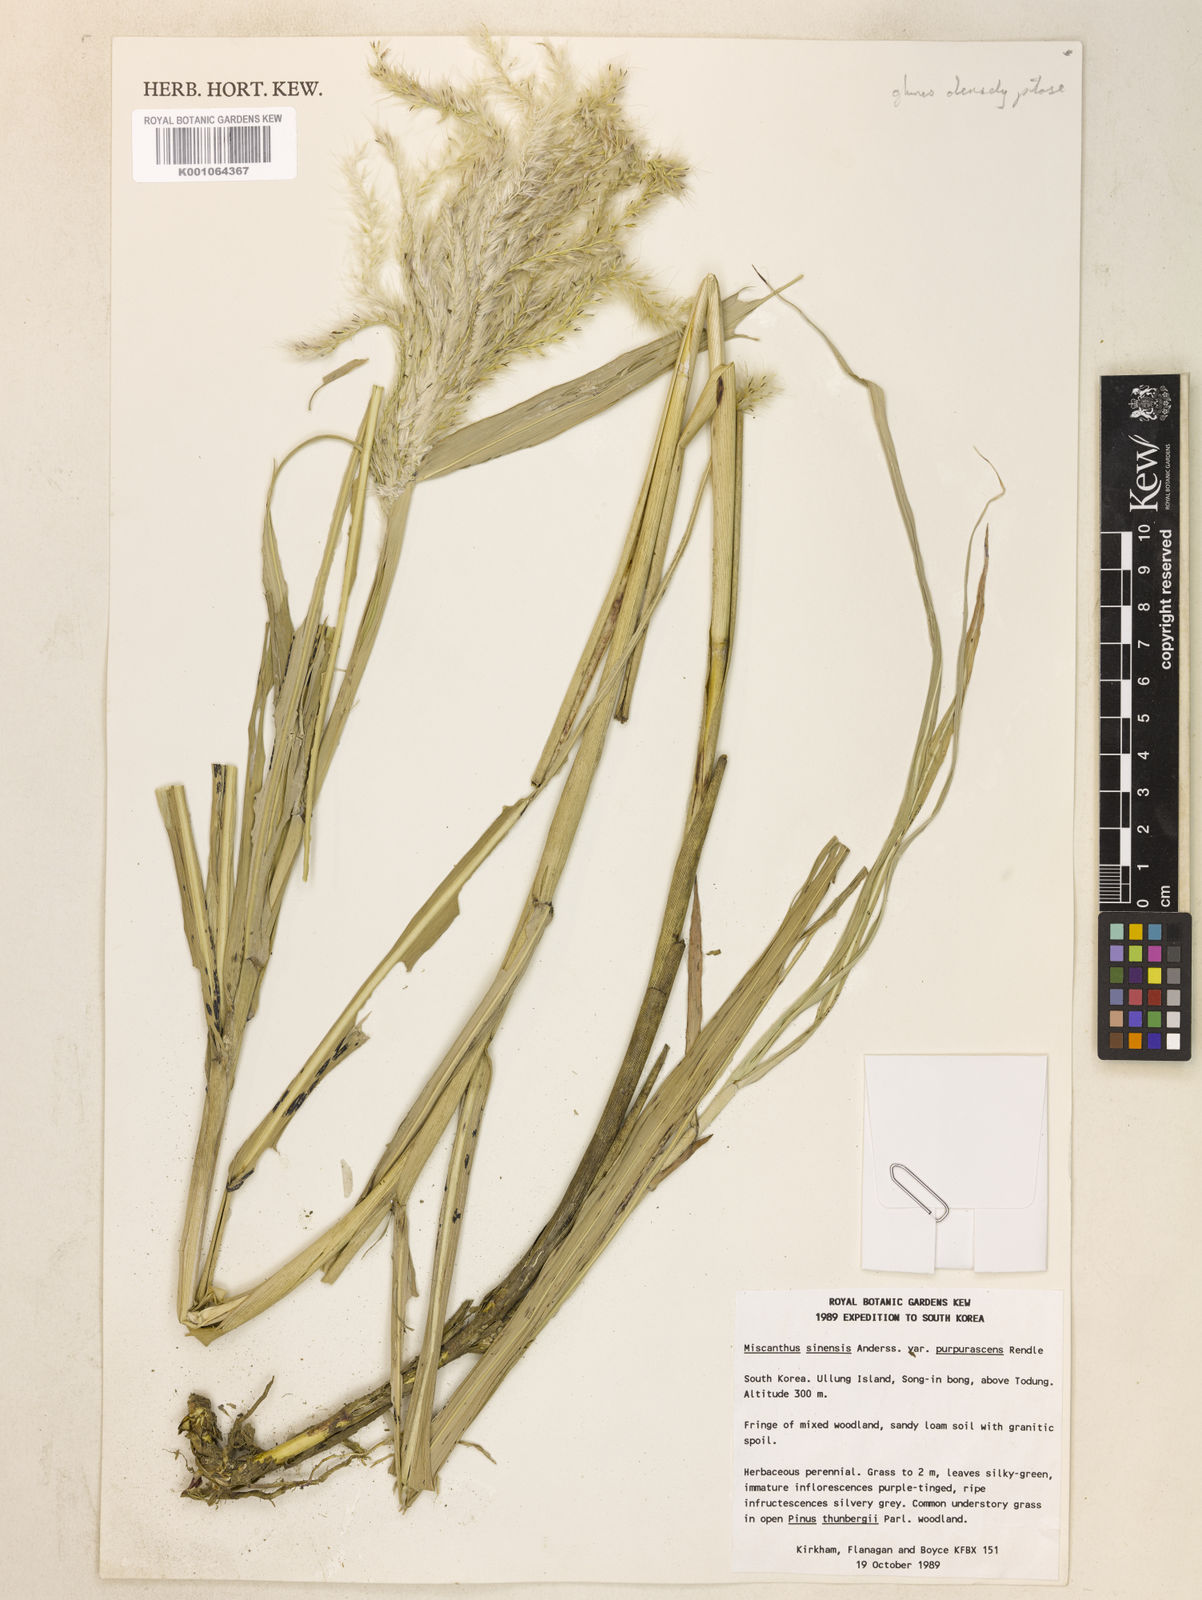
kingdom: Plantae
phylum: Tracheophyta
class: Liliopsida
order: Poales
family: Poaceae
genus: Miscanthus
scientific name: Miscanthus sinensis
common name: Chinese silvergrass
